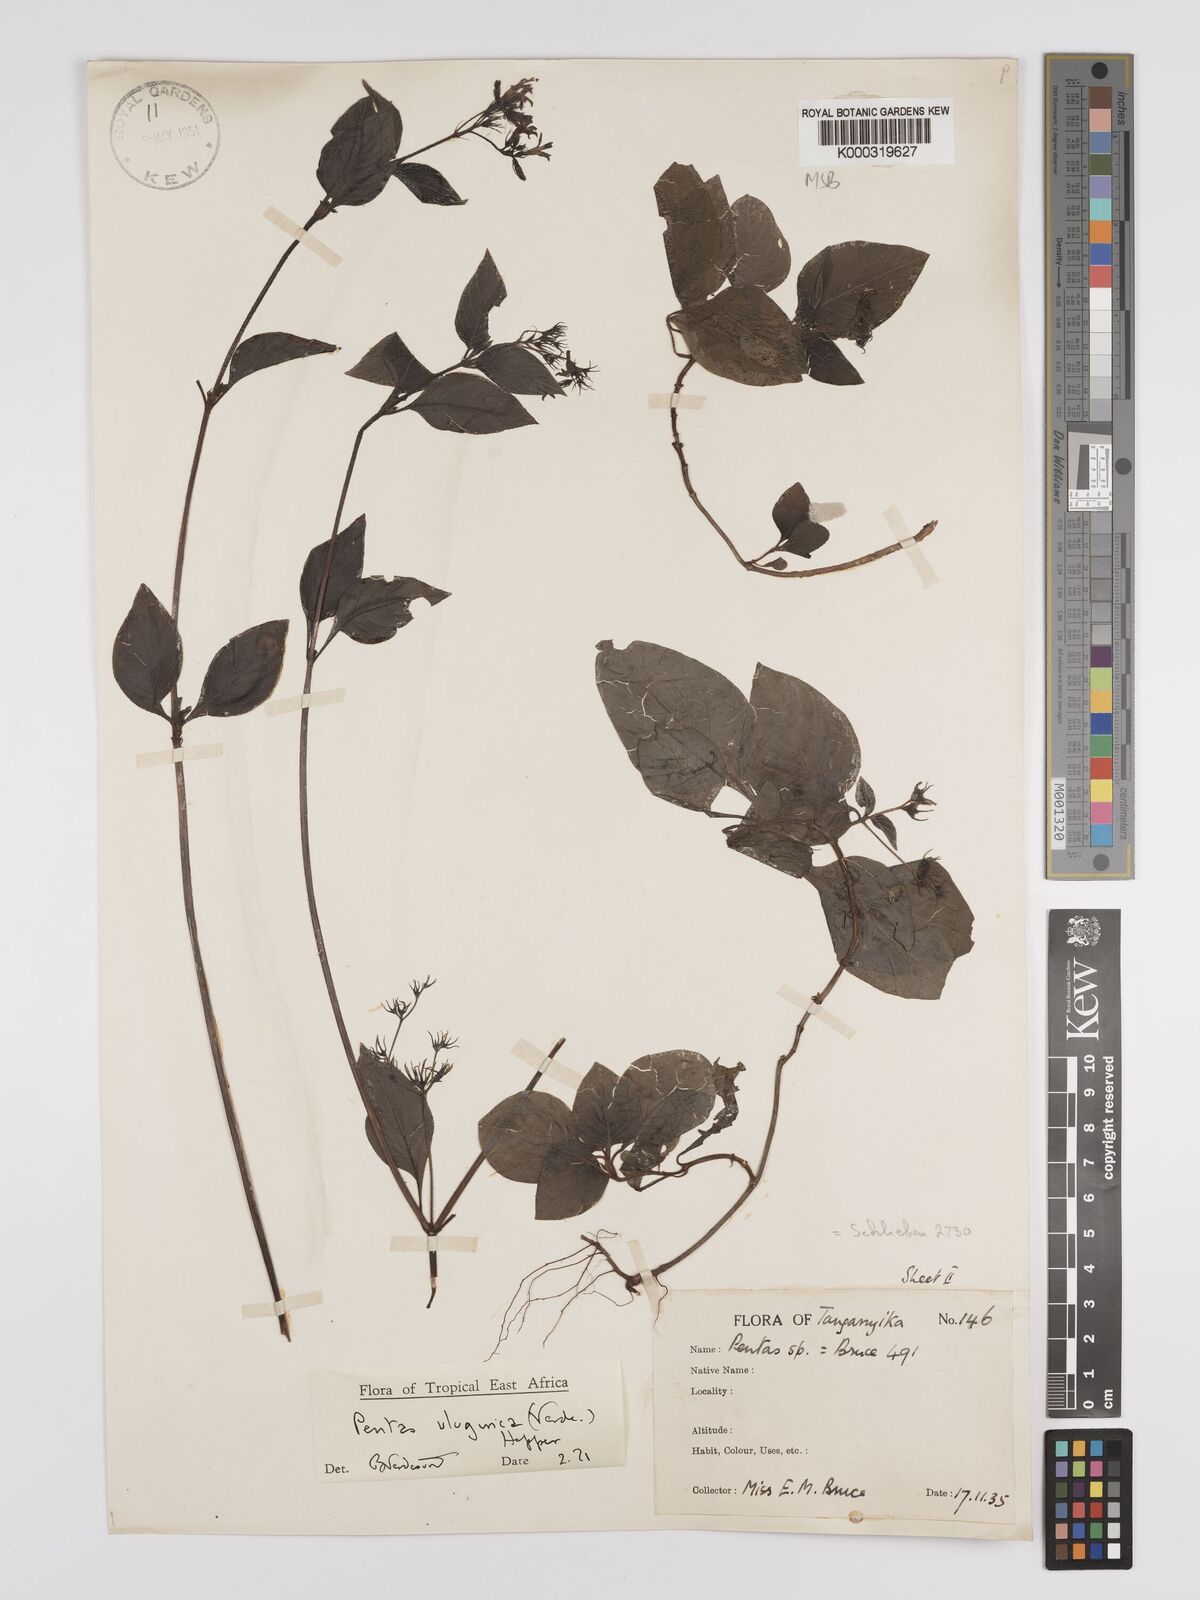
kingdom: Plantae
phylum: Tracheophyta
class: Magnoliopsida
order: Gentianales
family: Rubiaceae
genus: Phyllopentas
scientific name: Phyllopentas ulugurica
